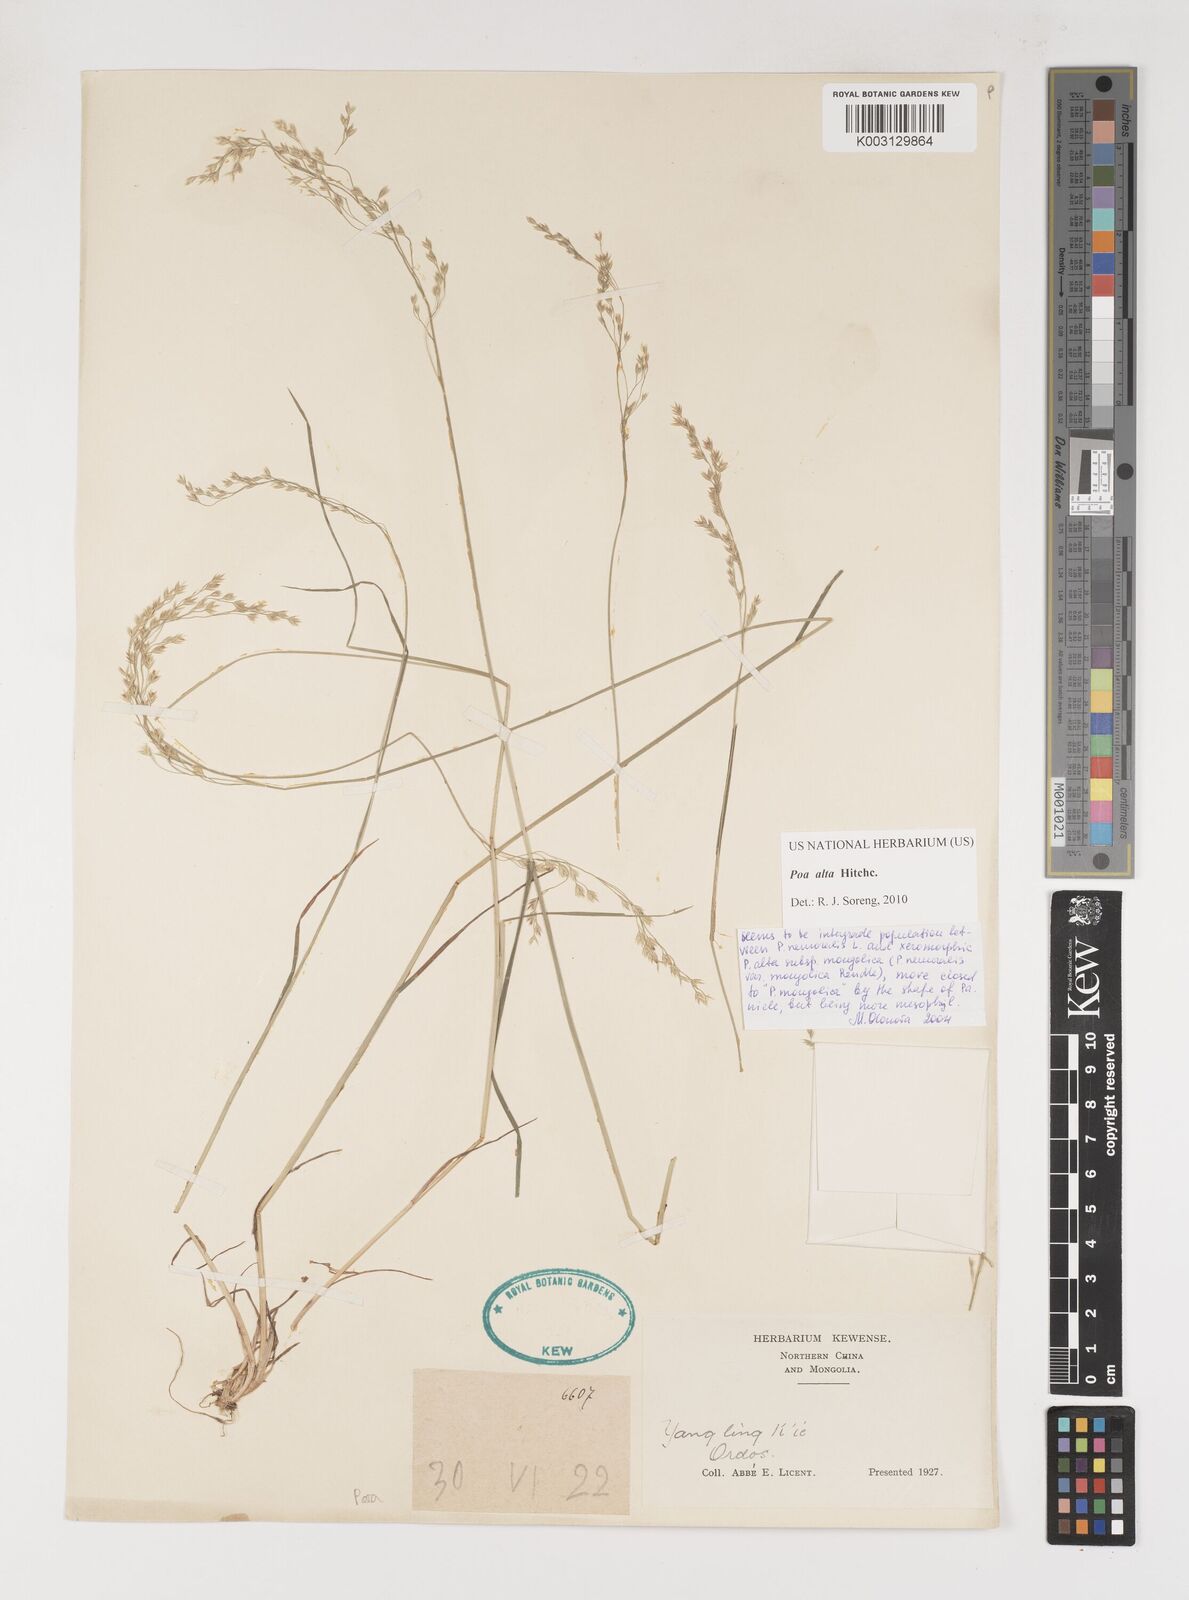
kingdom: Plantae
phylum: Tracheophyta
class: Liliopsida
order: Poales
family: Poaceae
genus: Poa
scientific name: Poa alta
